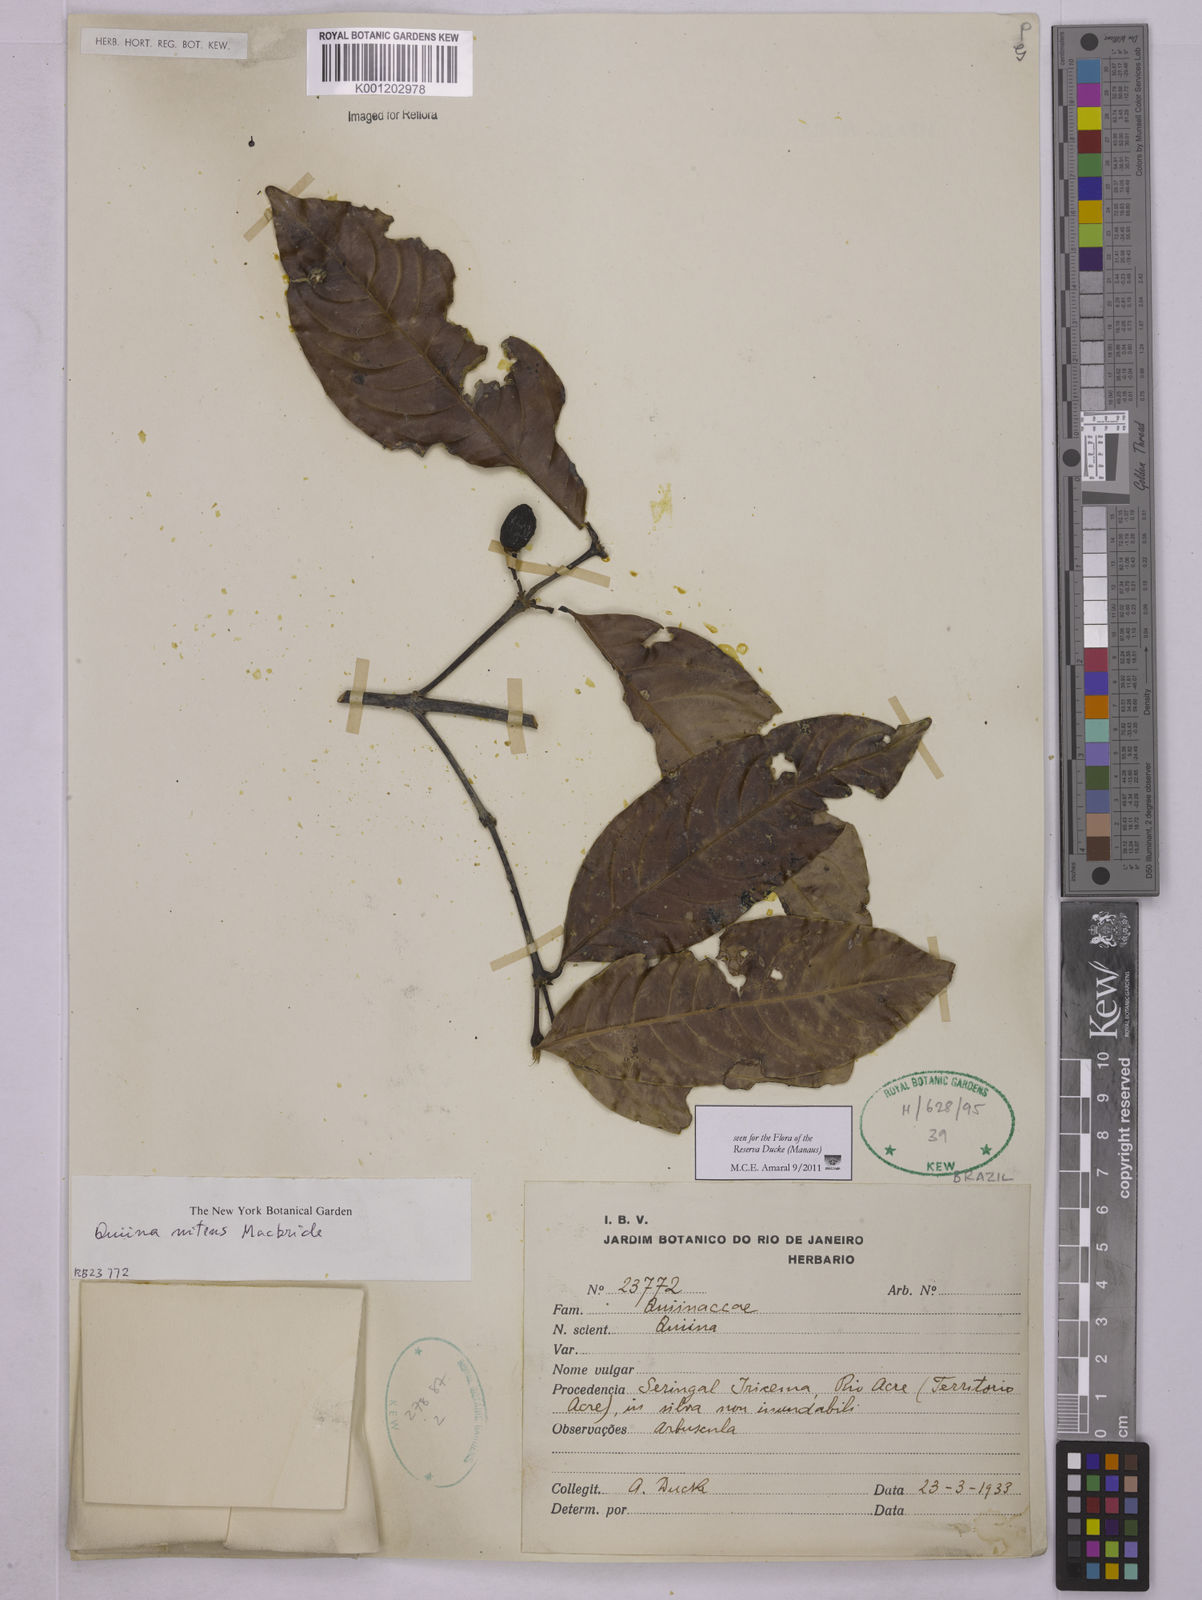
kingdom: Plantae
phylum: Tracheophyta
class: Magnoliopsida
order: Malpighiales
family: Quiinaceae
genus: Quiina
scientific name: Quiina florida
